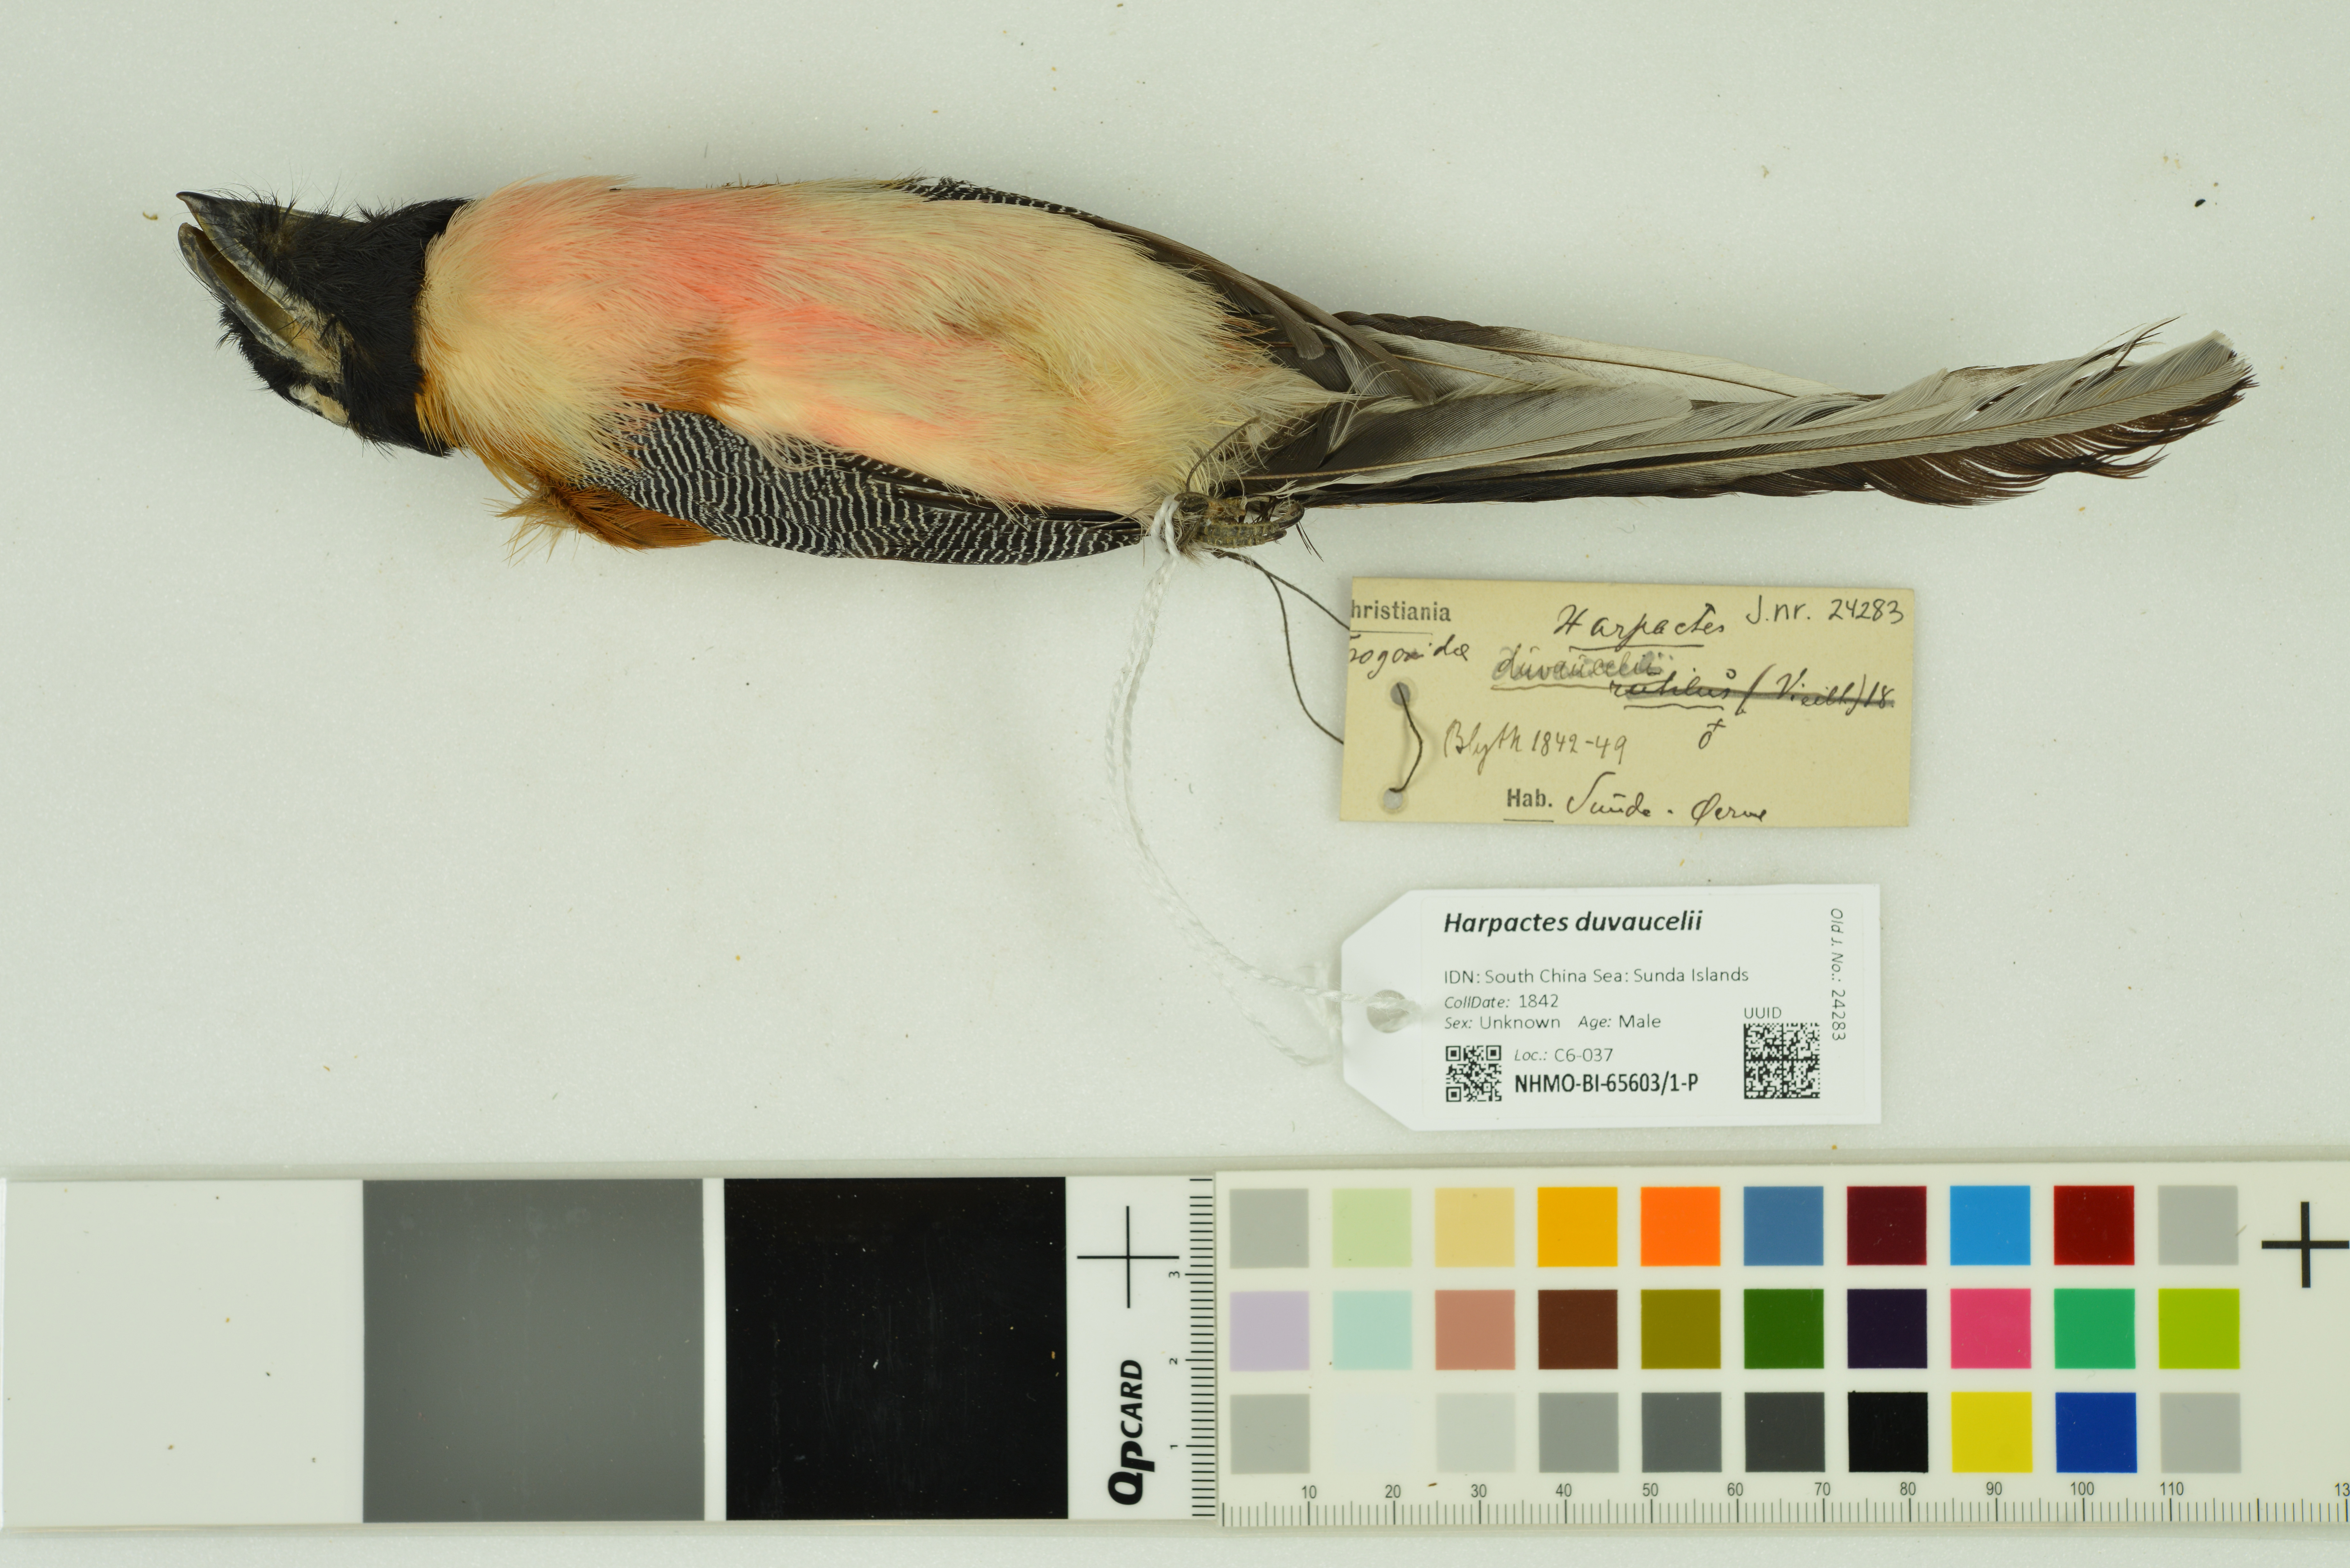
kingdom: Animalia
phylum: Chordata
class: Aves
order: Trogoniformes
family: Trogonidae
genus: Harpactes
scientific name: Harpactes duvaucelii
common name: Scarlet-rumped trogon
